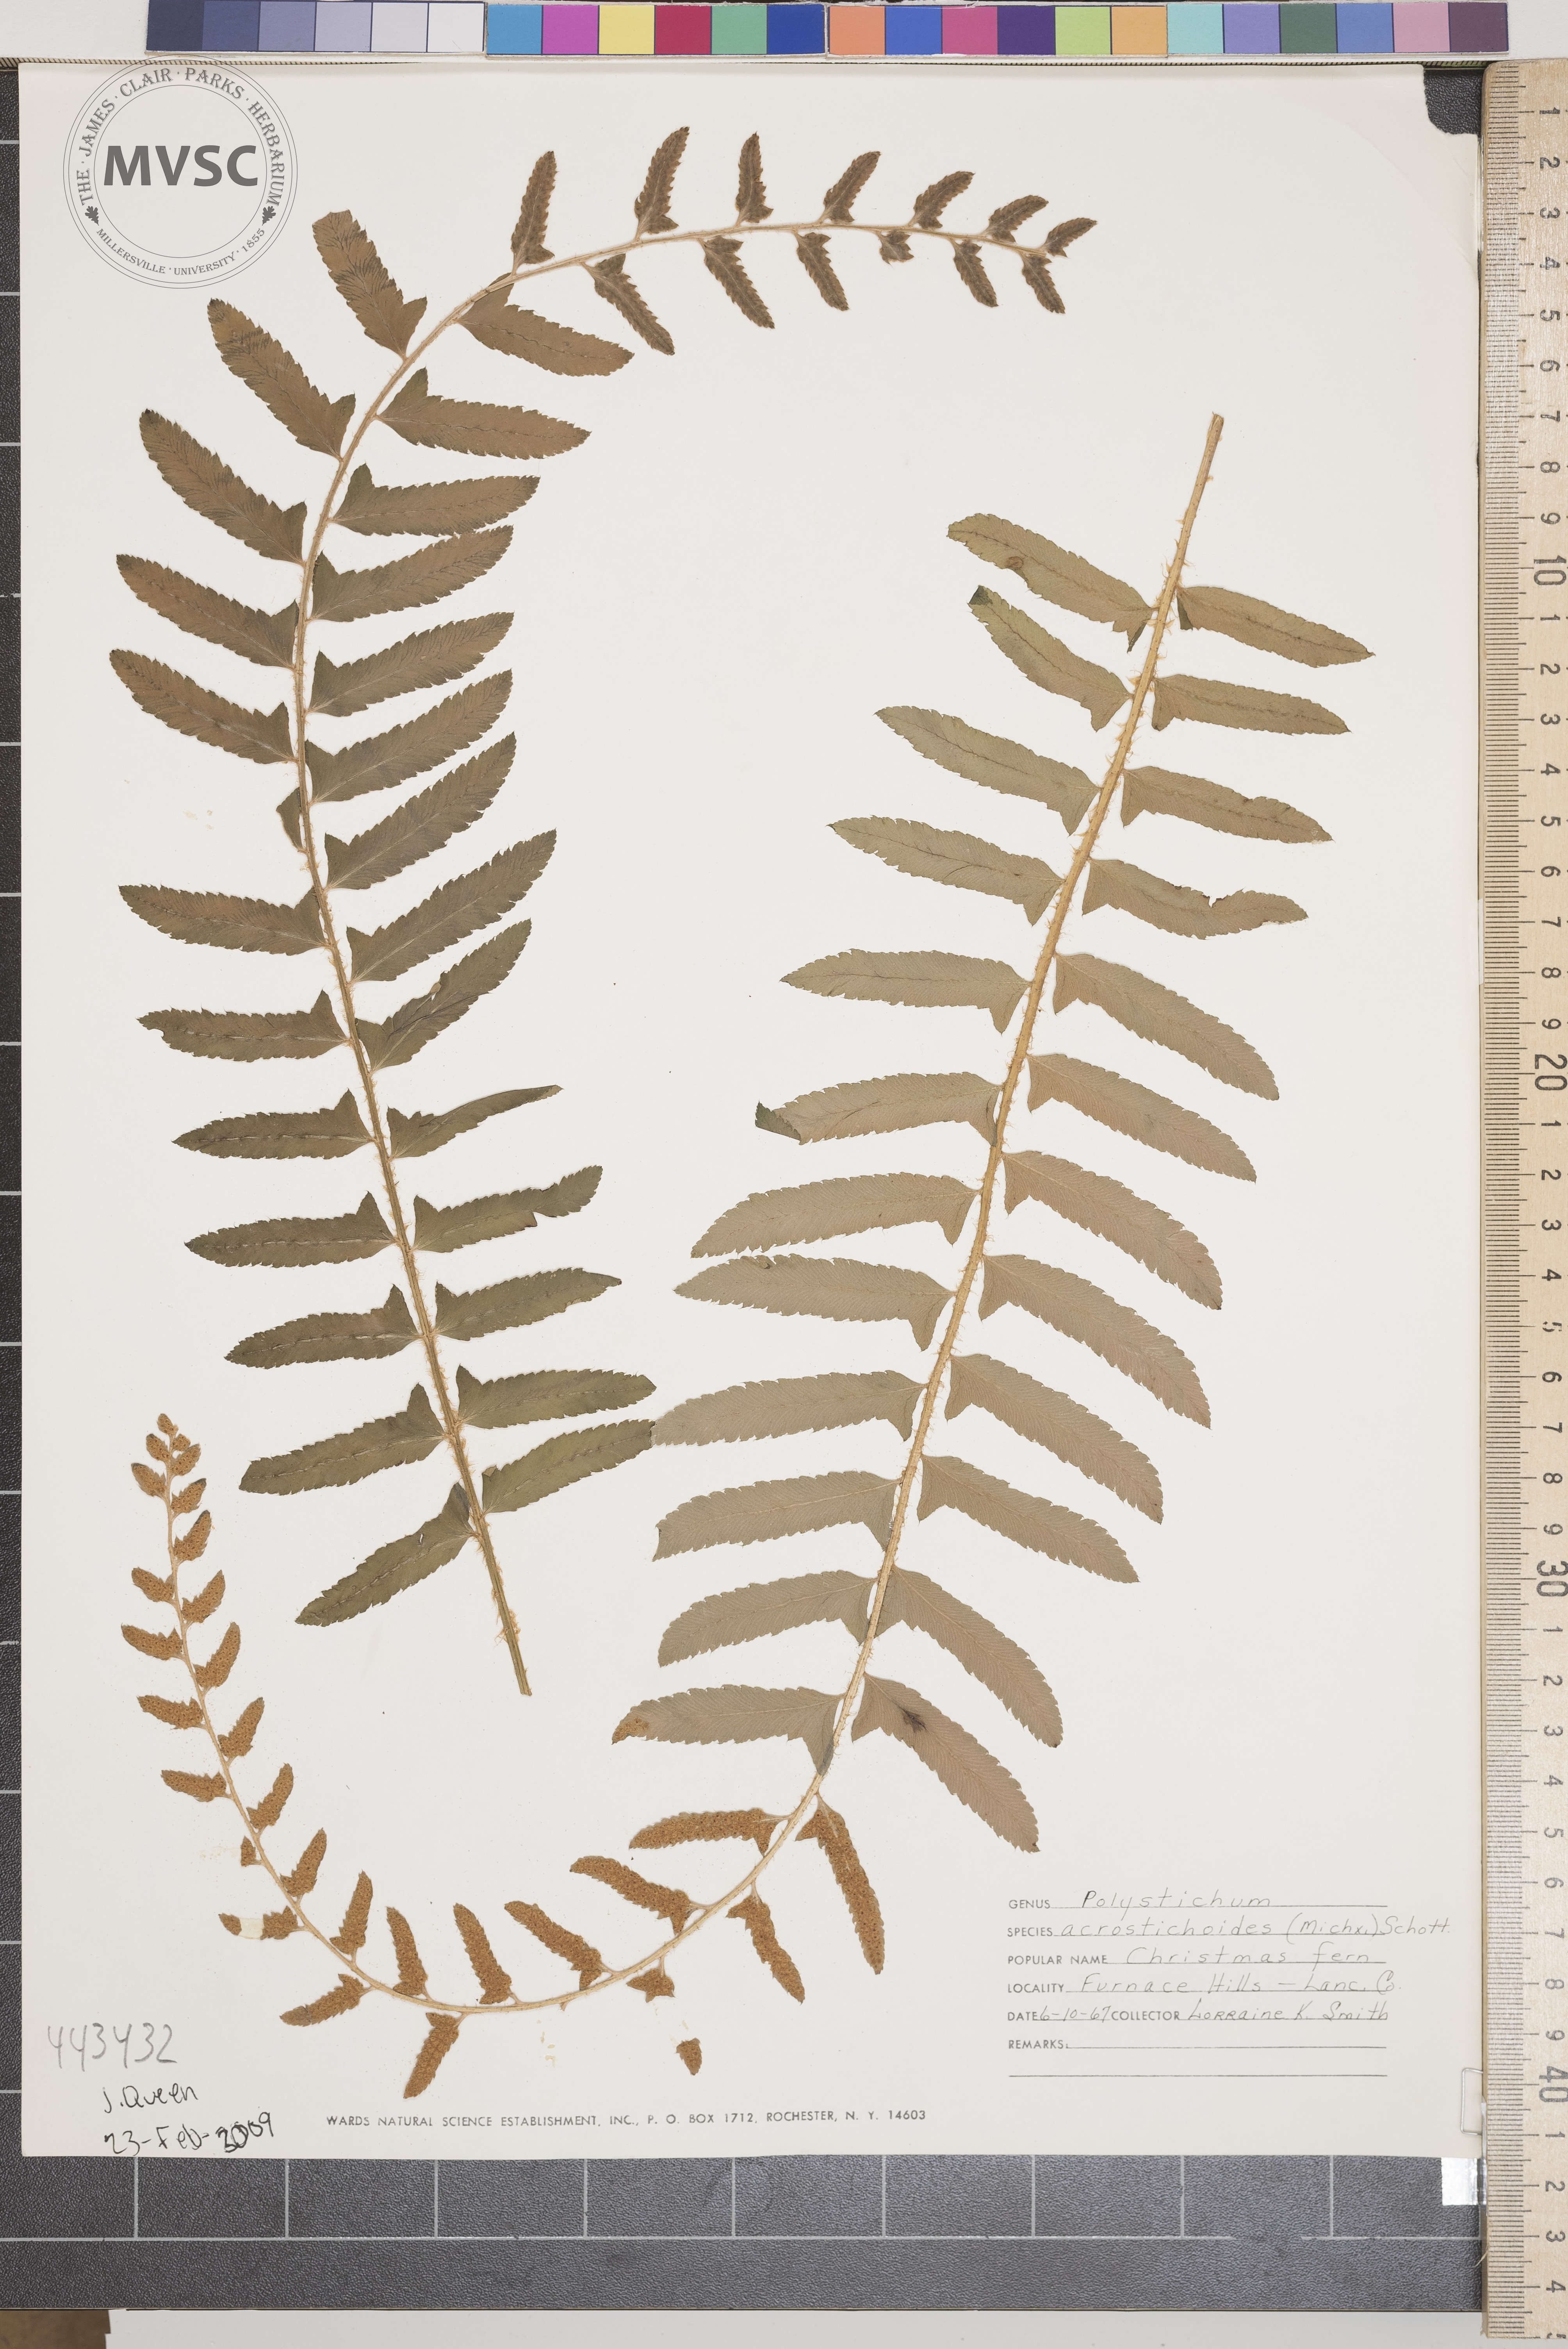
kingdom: Plantae
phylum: Tracheophyta
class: Polypodiopsida
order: Polypodiales
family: Dryopteridaceae
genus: Polystichum
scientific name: Polystichum acrostichoides
